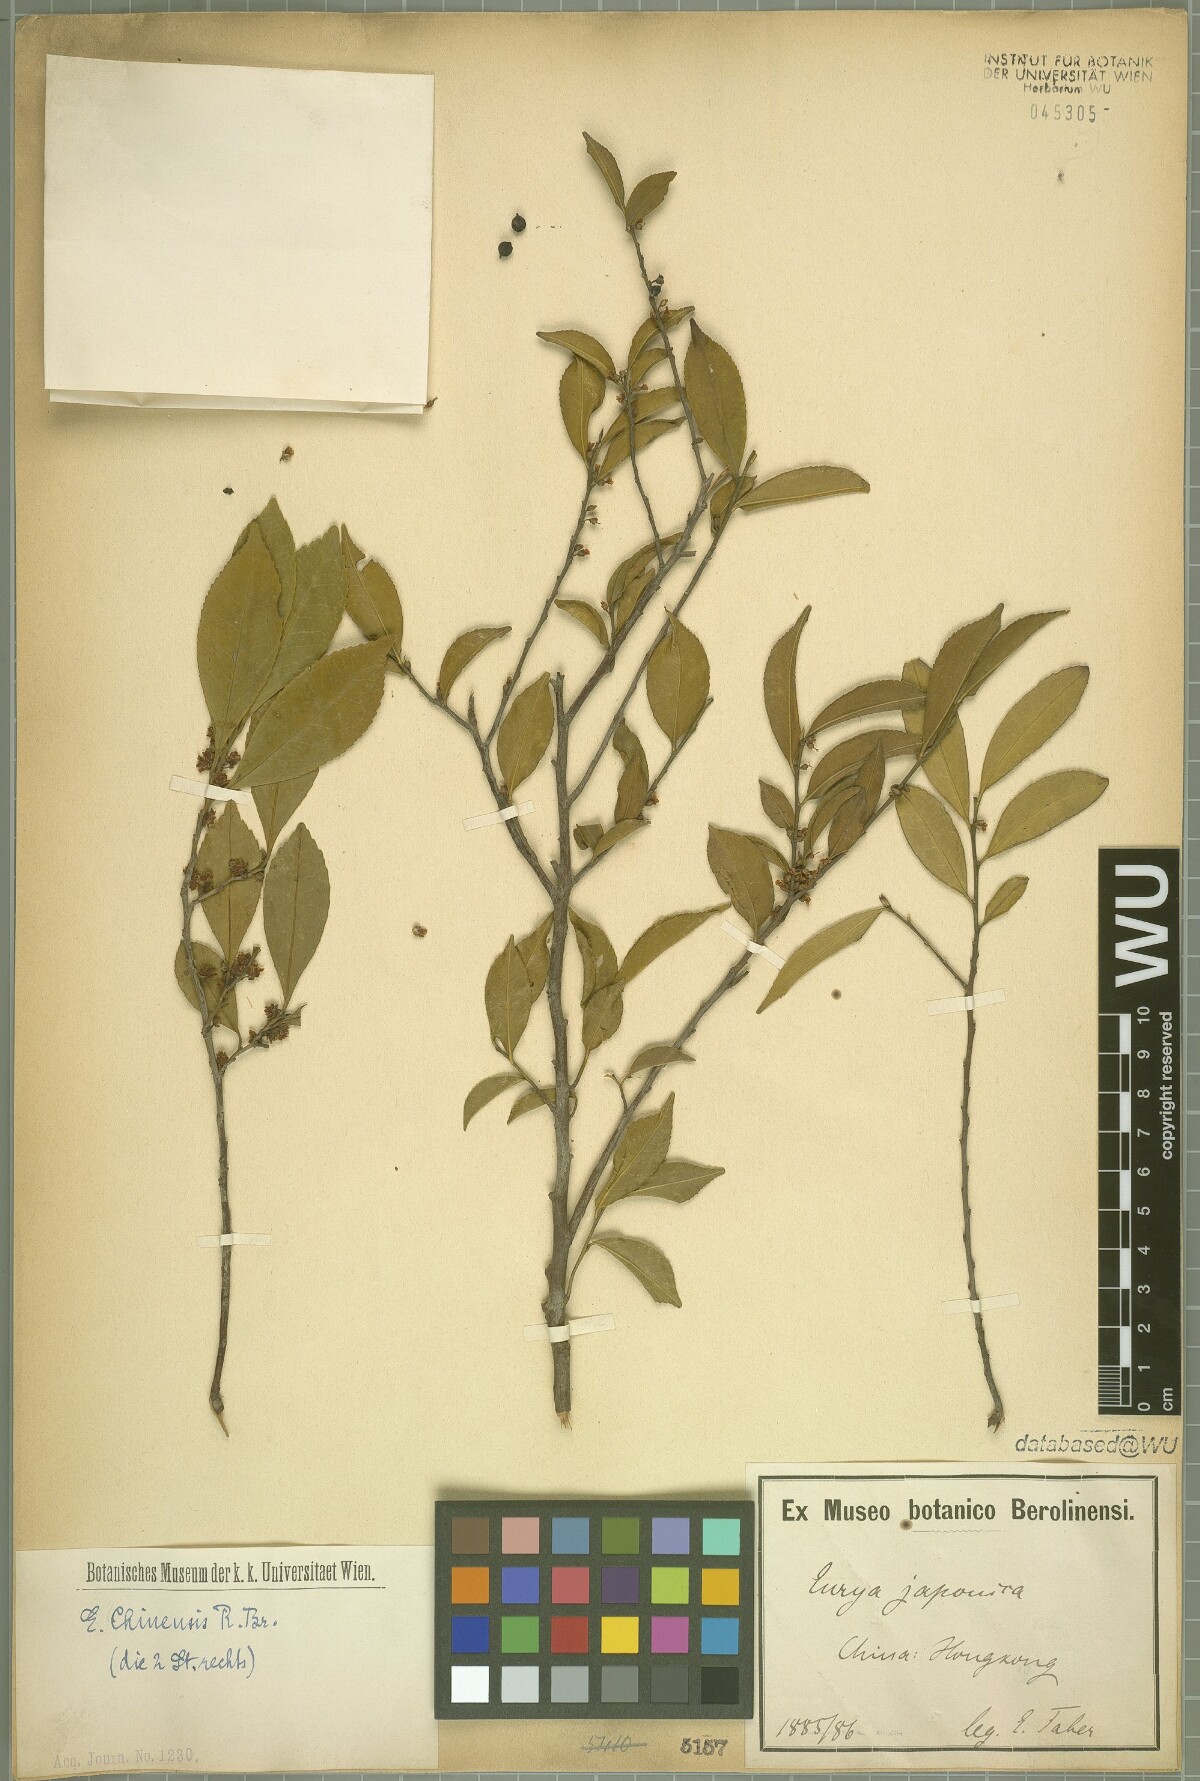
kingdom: Plantae
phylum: Tracheophyta
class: Magnoliopsida
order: Ericales
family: Pentaphylacaceae
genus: Eurya
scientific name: Eurya chinensis
